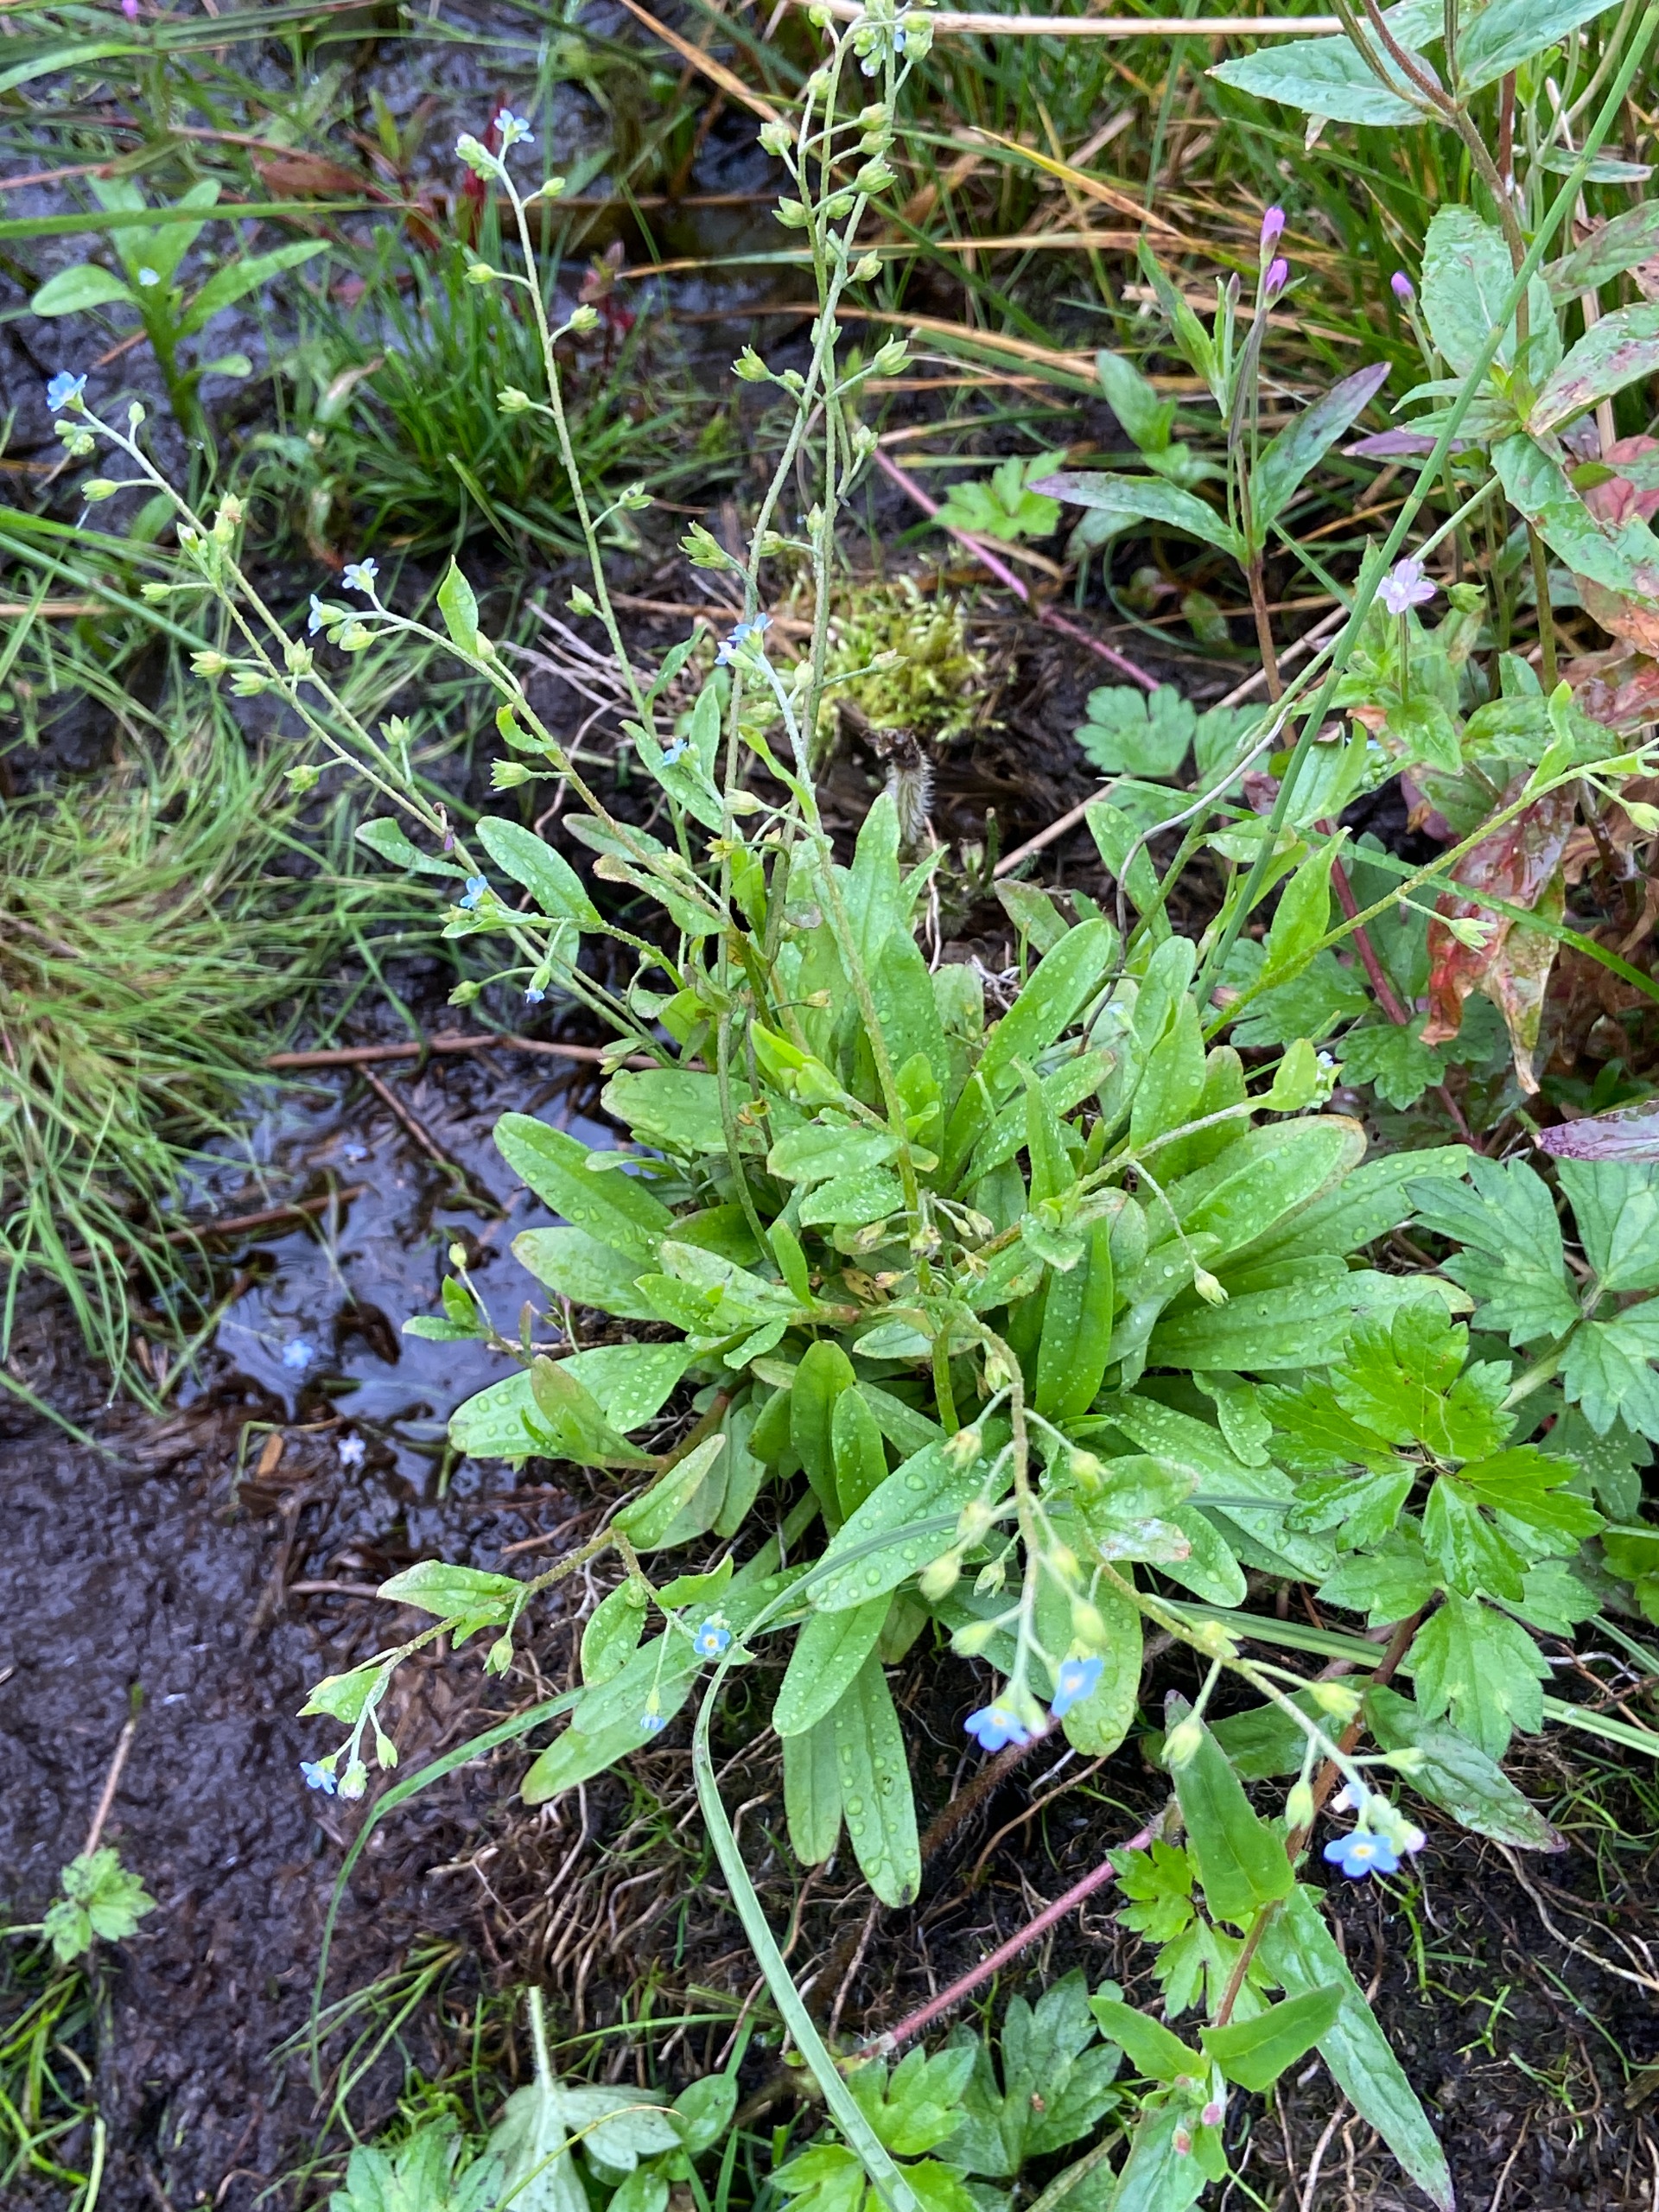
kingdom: Plantae
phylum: Tracheophyta
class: Magnoliopsida
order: Boraginales
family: Boraginaceae
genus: Myosotis
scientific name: Myosotis laxa
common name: Sump-forglemmigej
